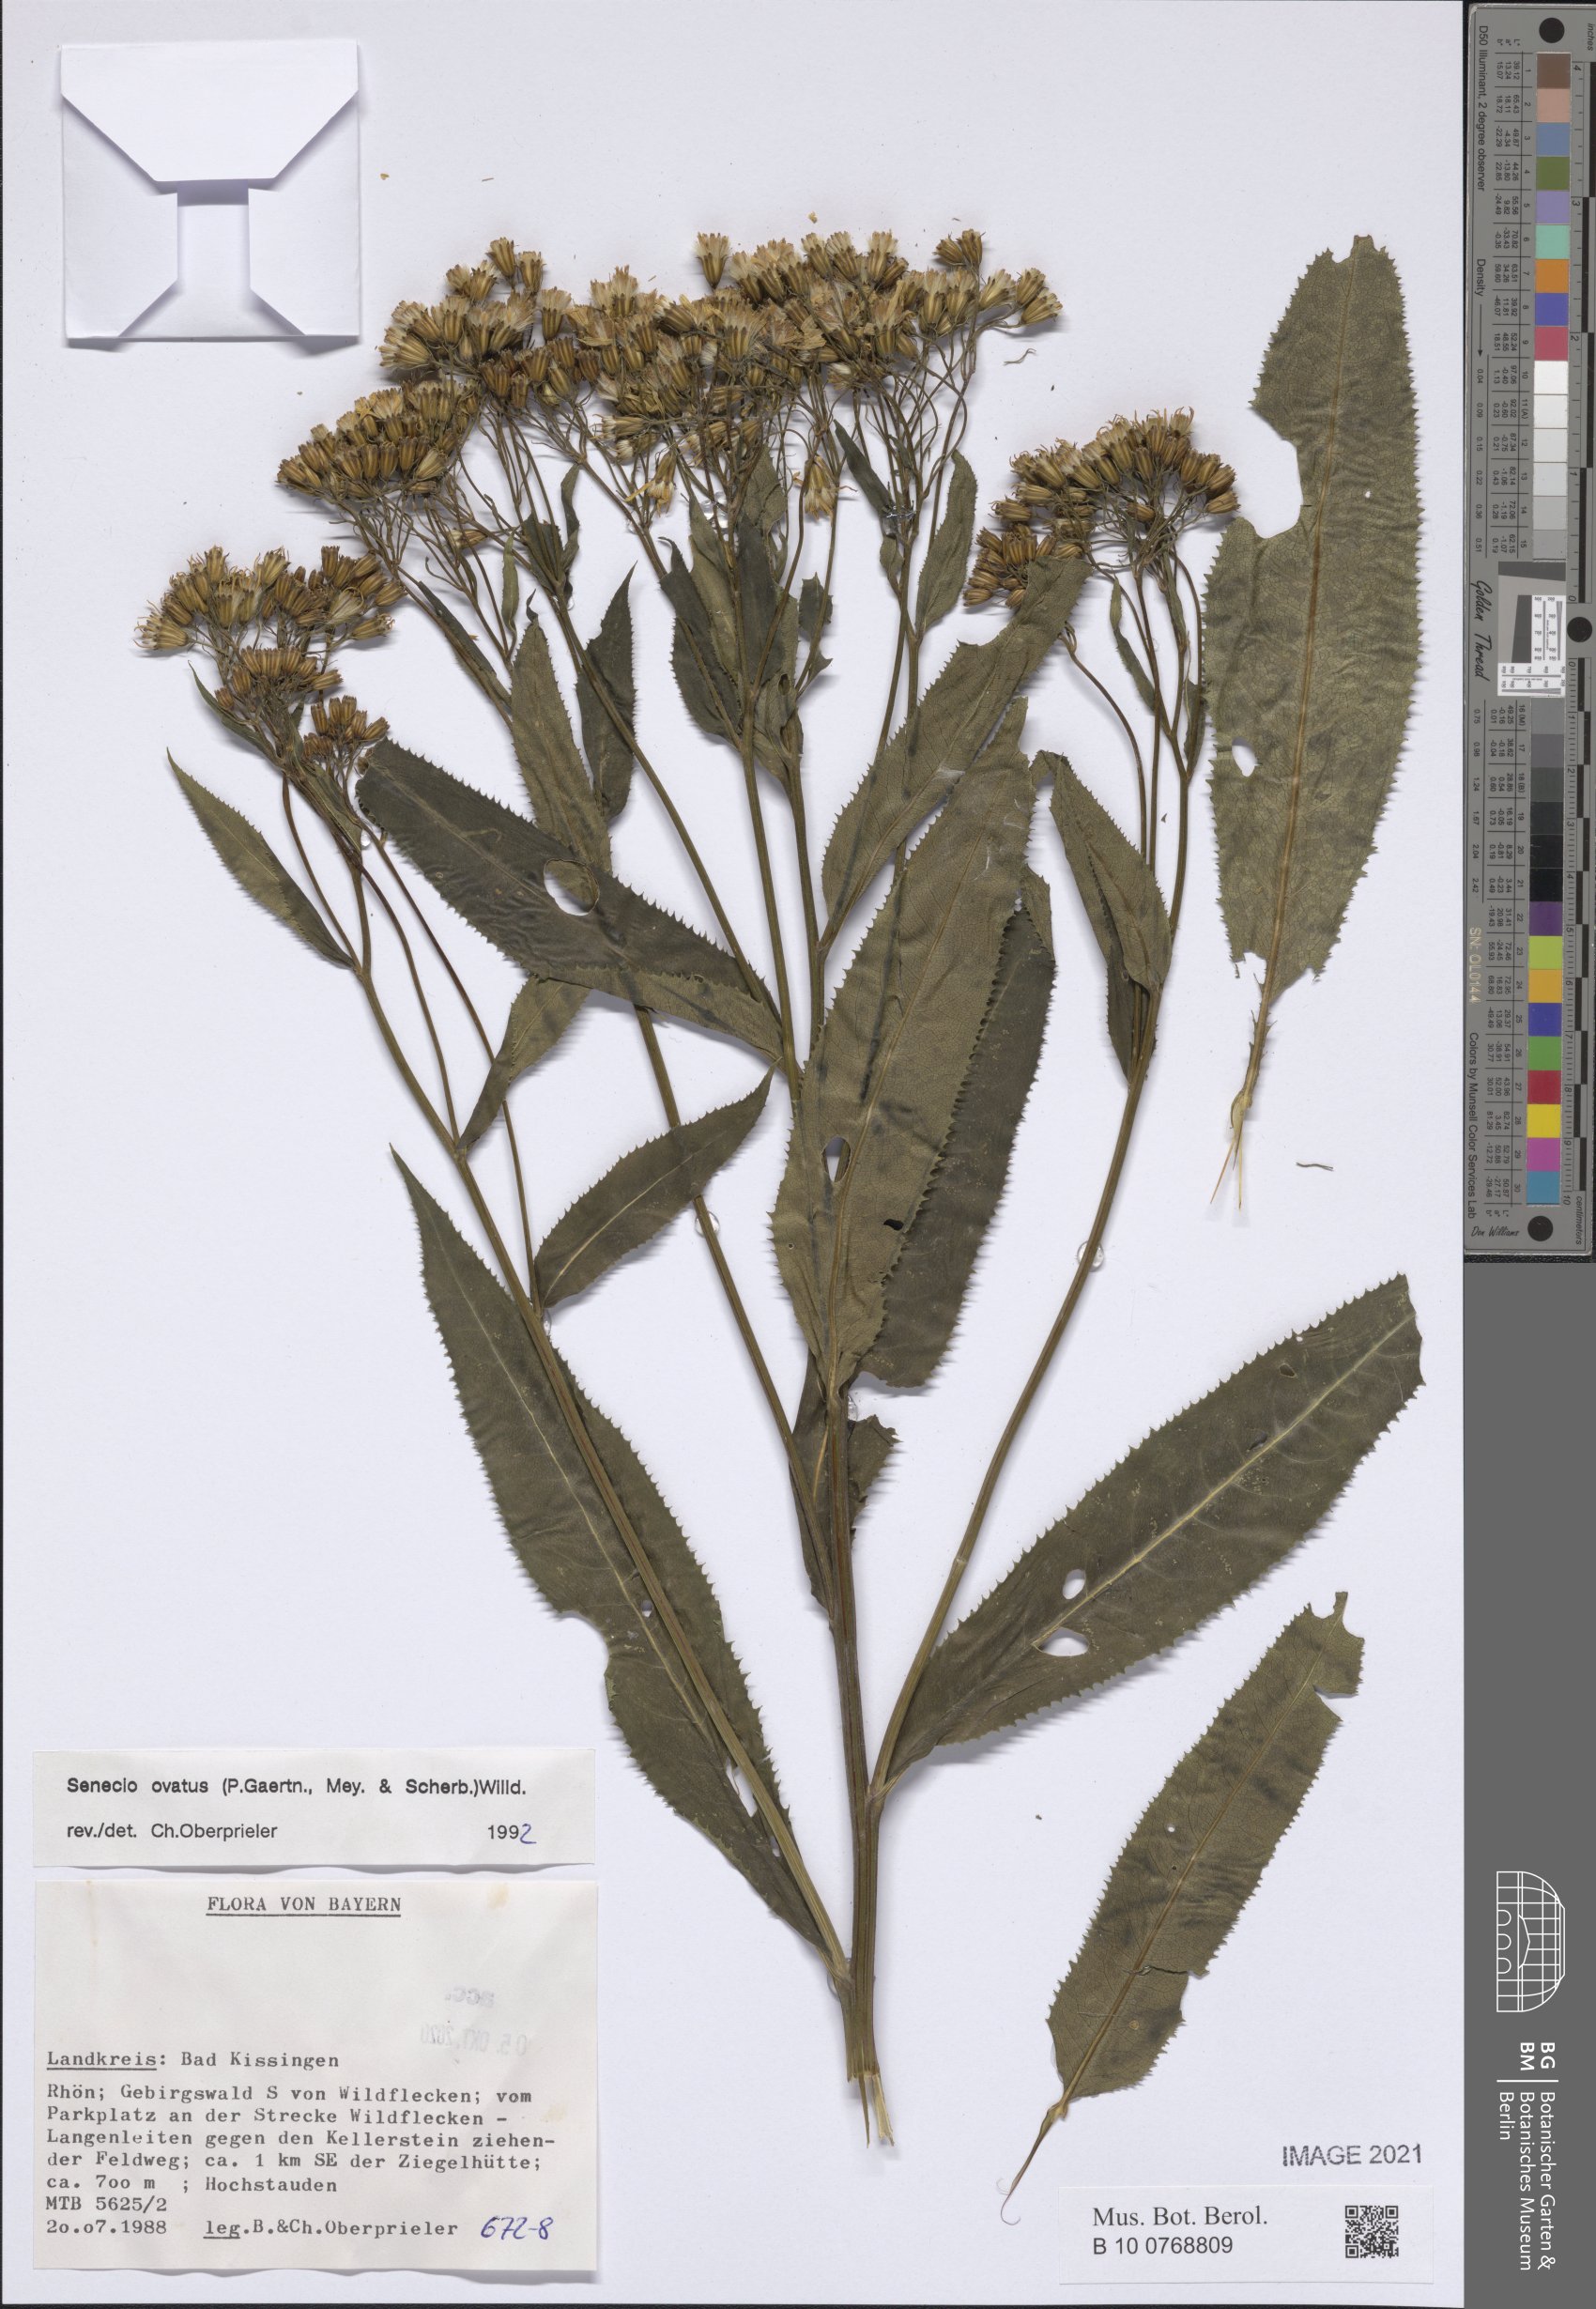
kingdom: Plantae
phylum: Tracheophyta
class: Magnoliopsida
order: Asterales
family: Asteraceae
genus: Senecio
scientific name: Senecio ovatus
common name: Wood ragwort
